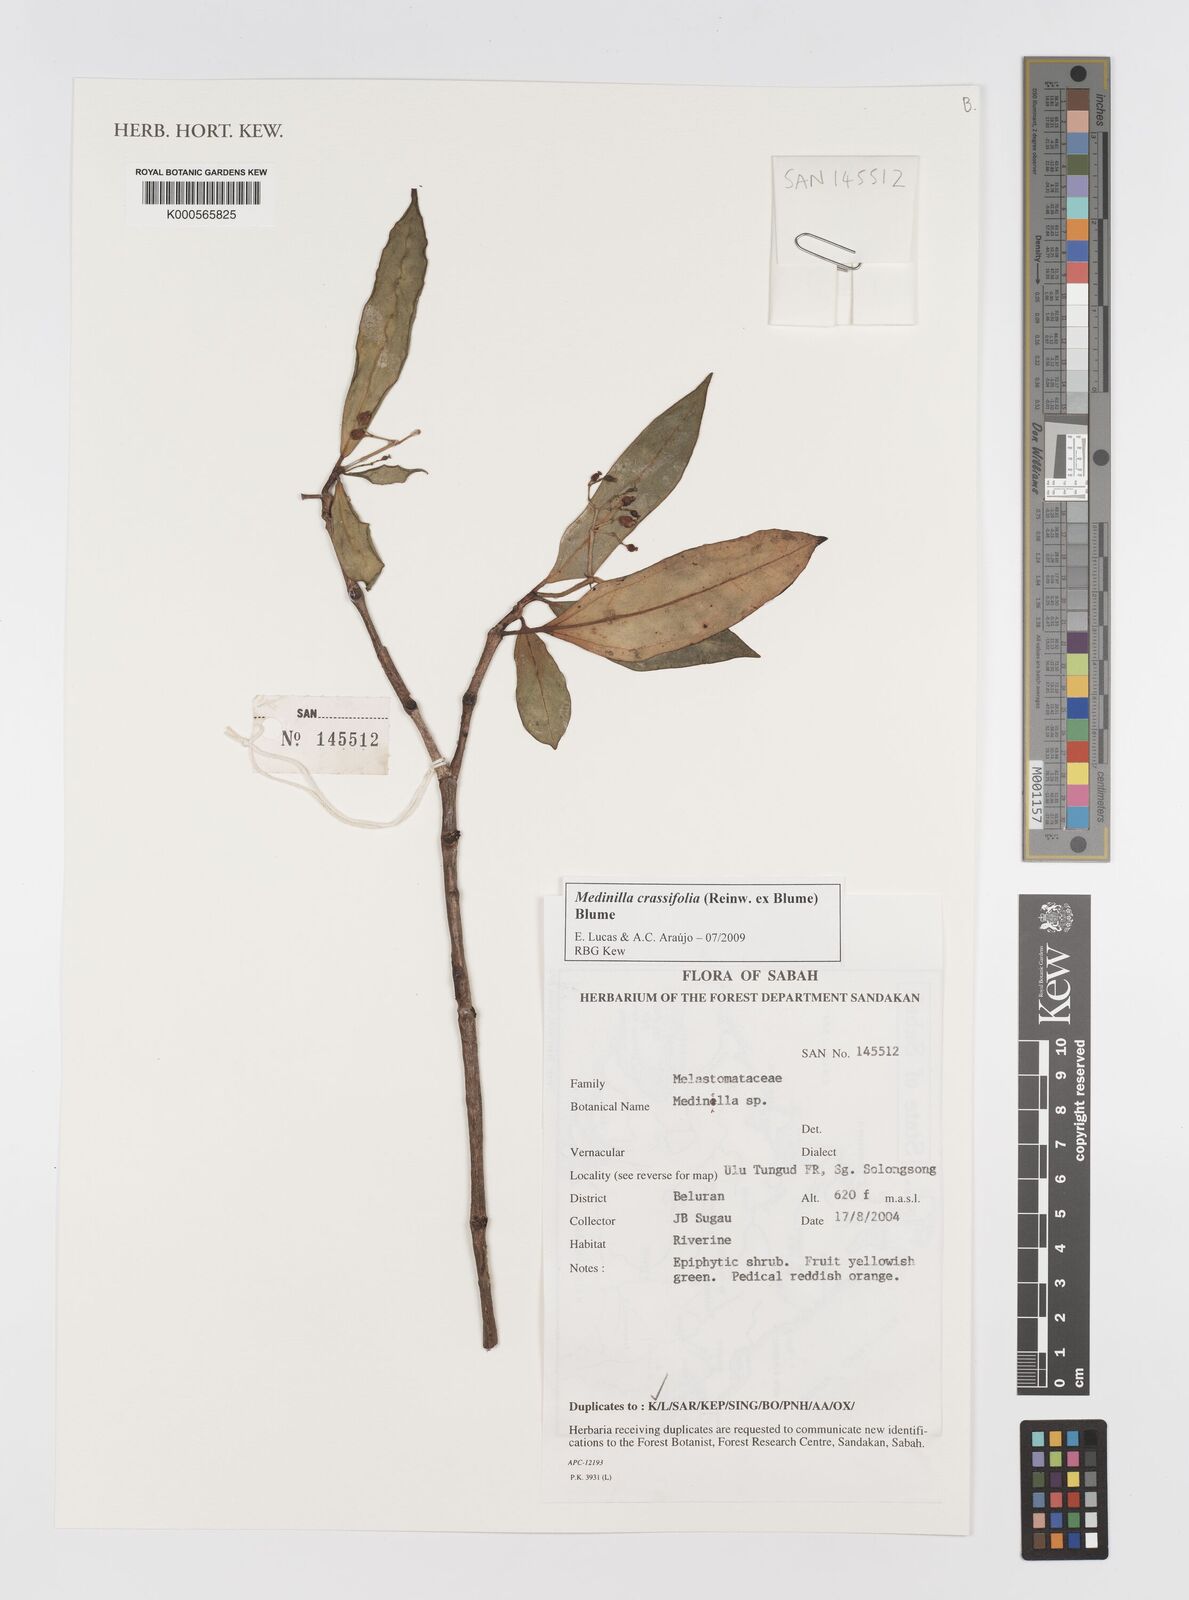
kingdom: Plantae
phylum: Tracheophyta
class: Magnoliopsida
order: Myrtales
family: Melastomataceae
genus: Medinilla
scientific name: Medinilla crassifolia
